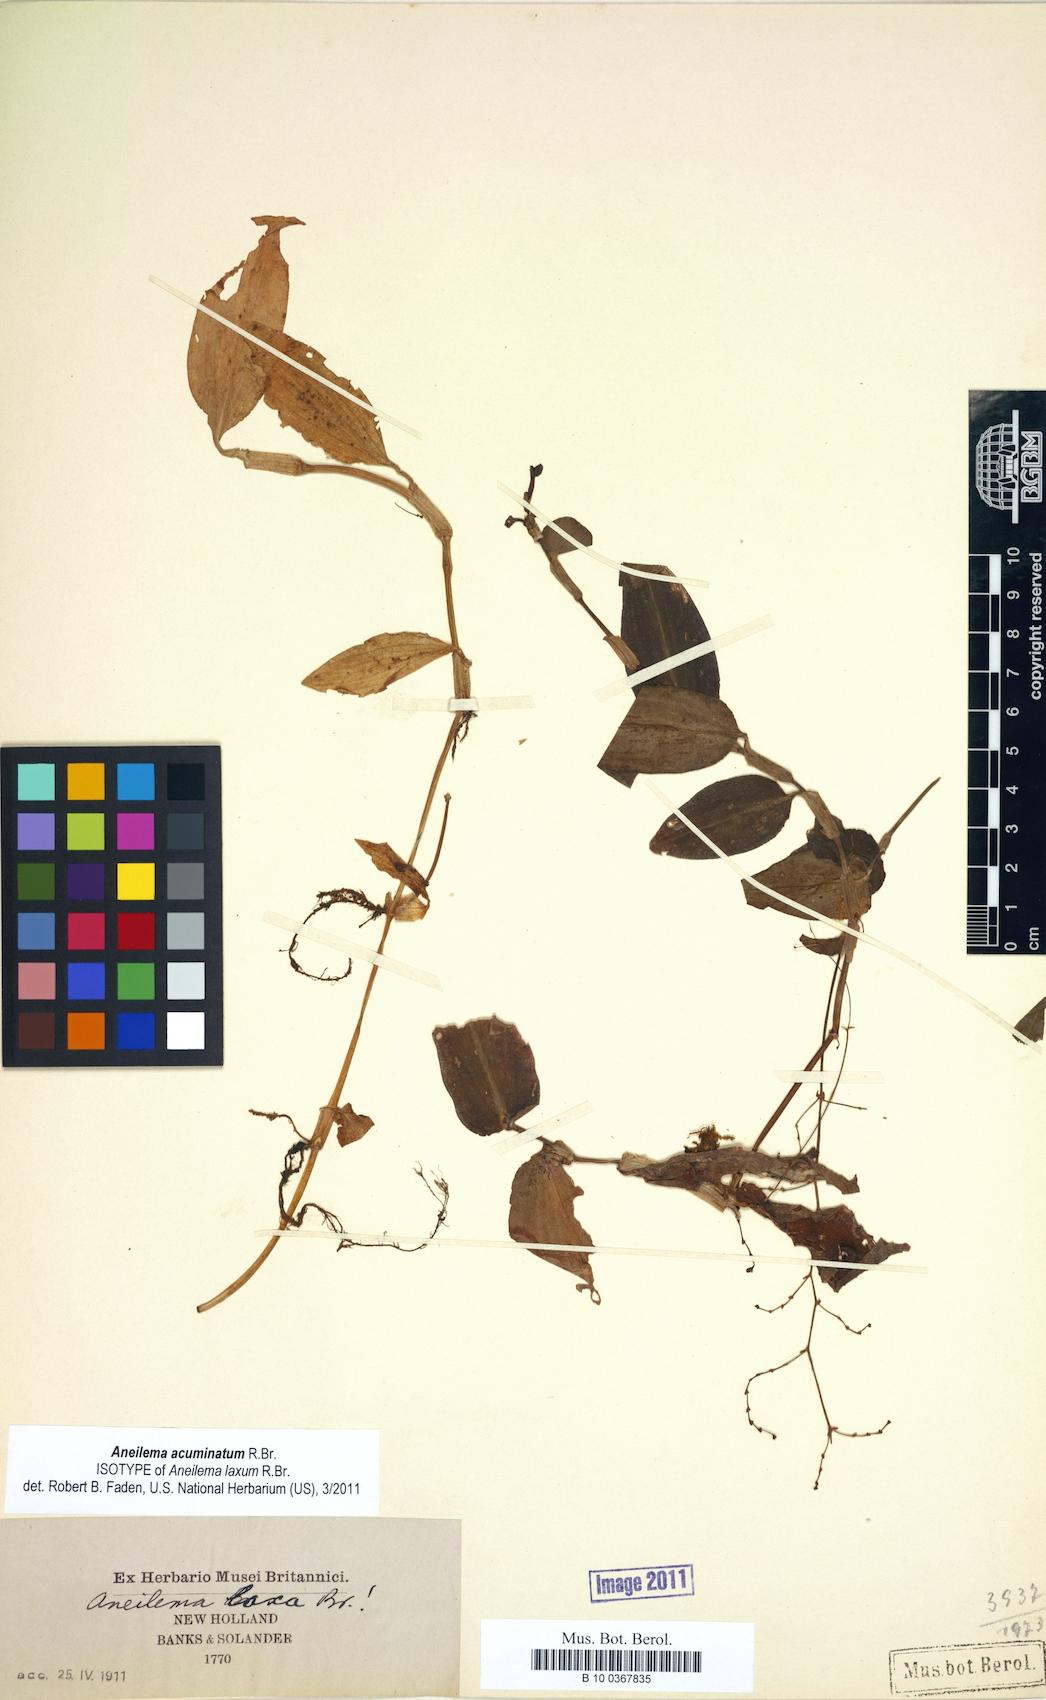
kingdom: Plantae
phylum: Tracheophyta
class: Liliopsida
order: Commelinales
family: Commelinaceae
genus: Aneilema
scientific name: Aneilema acuminatum
